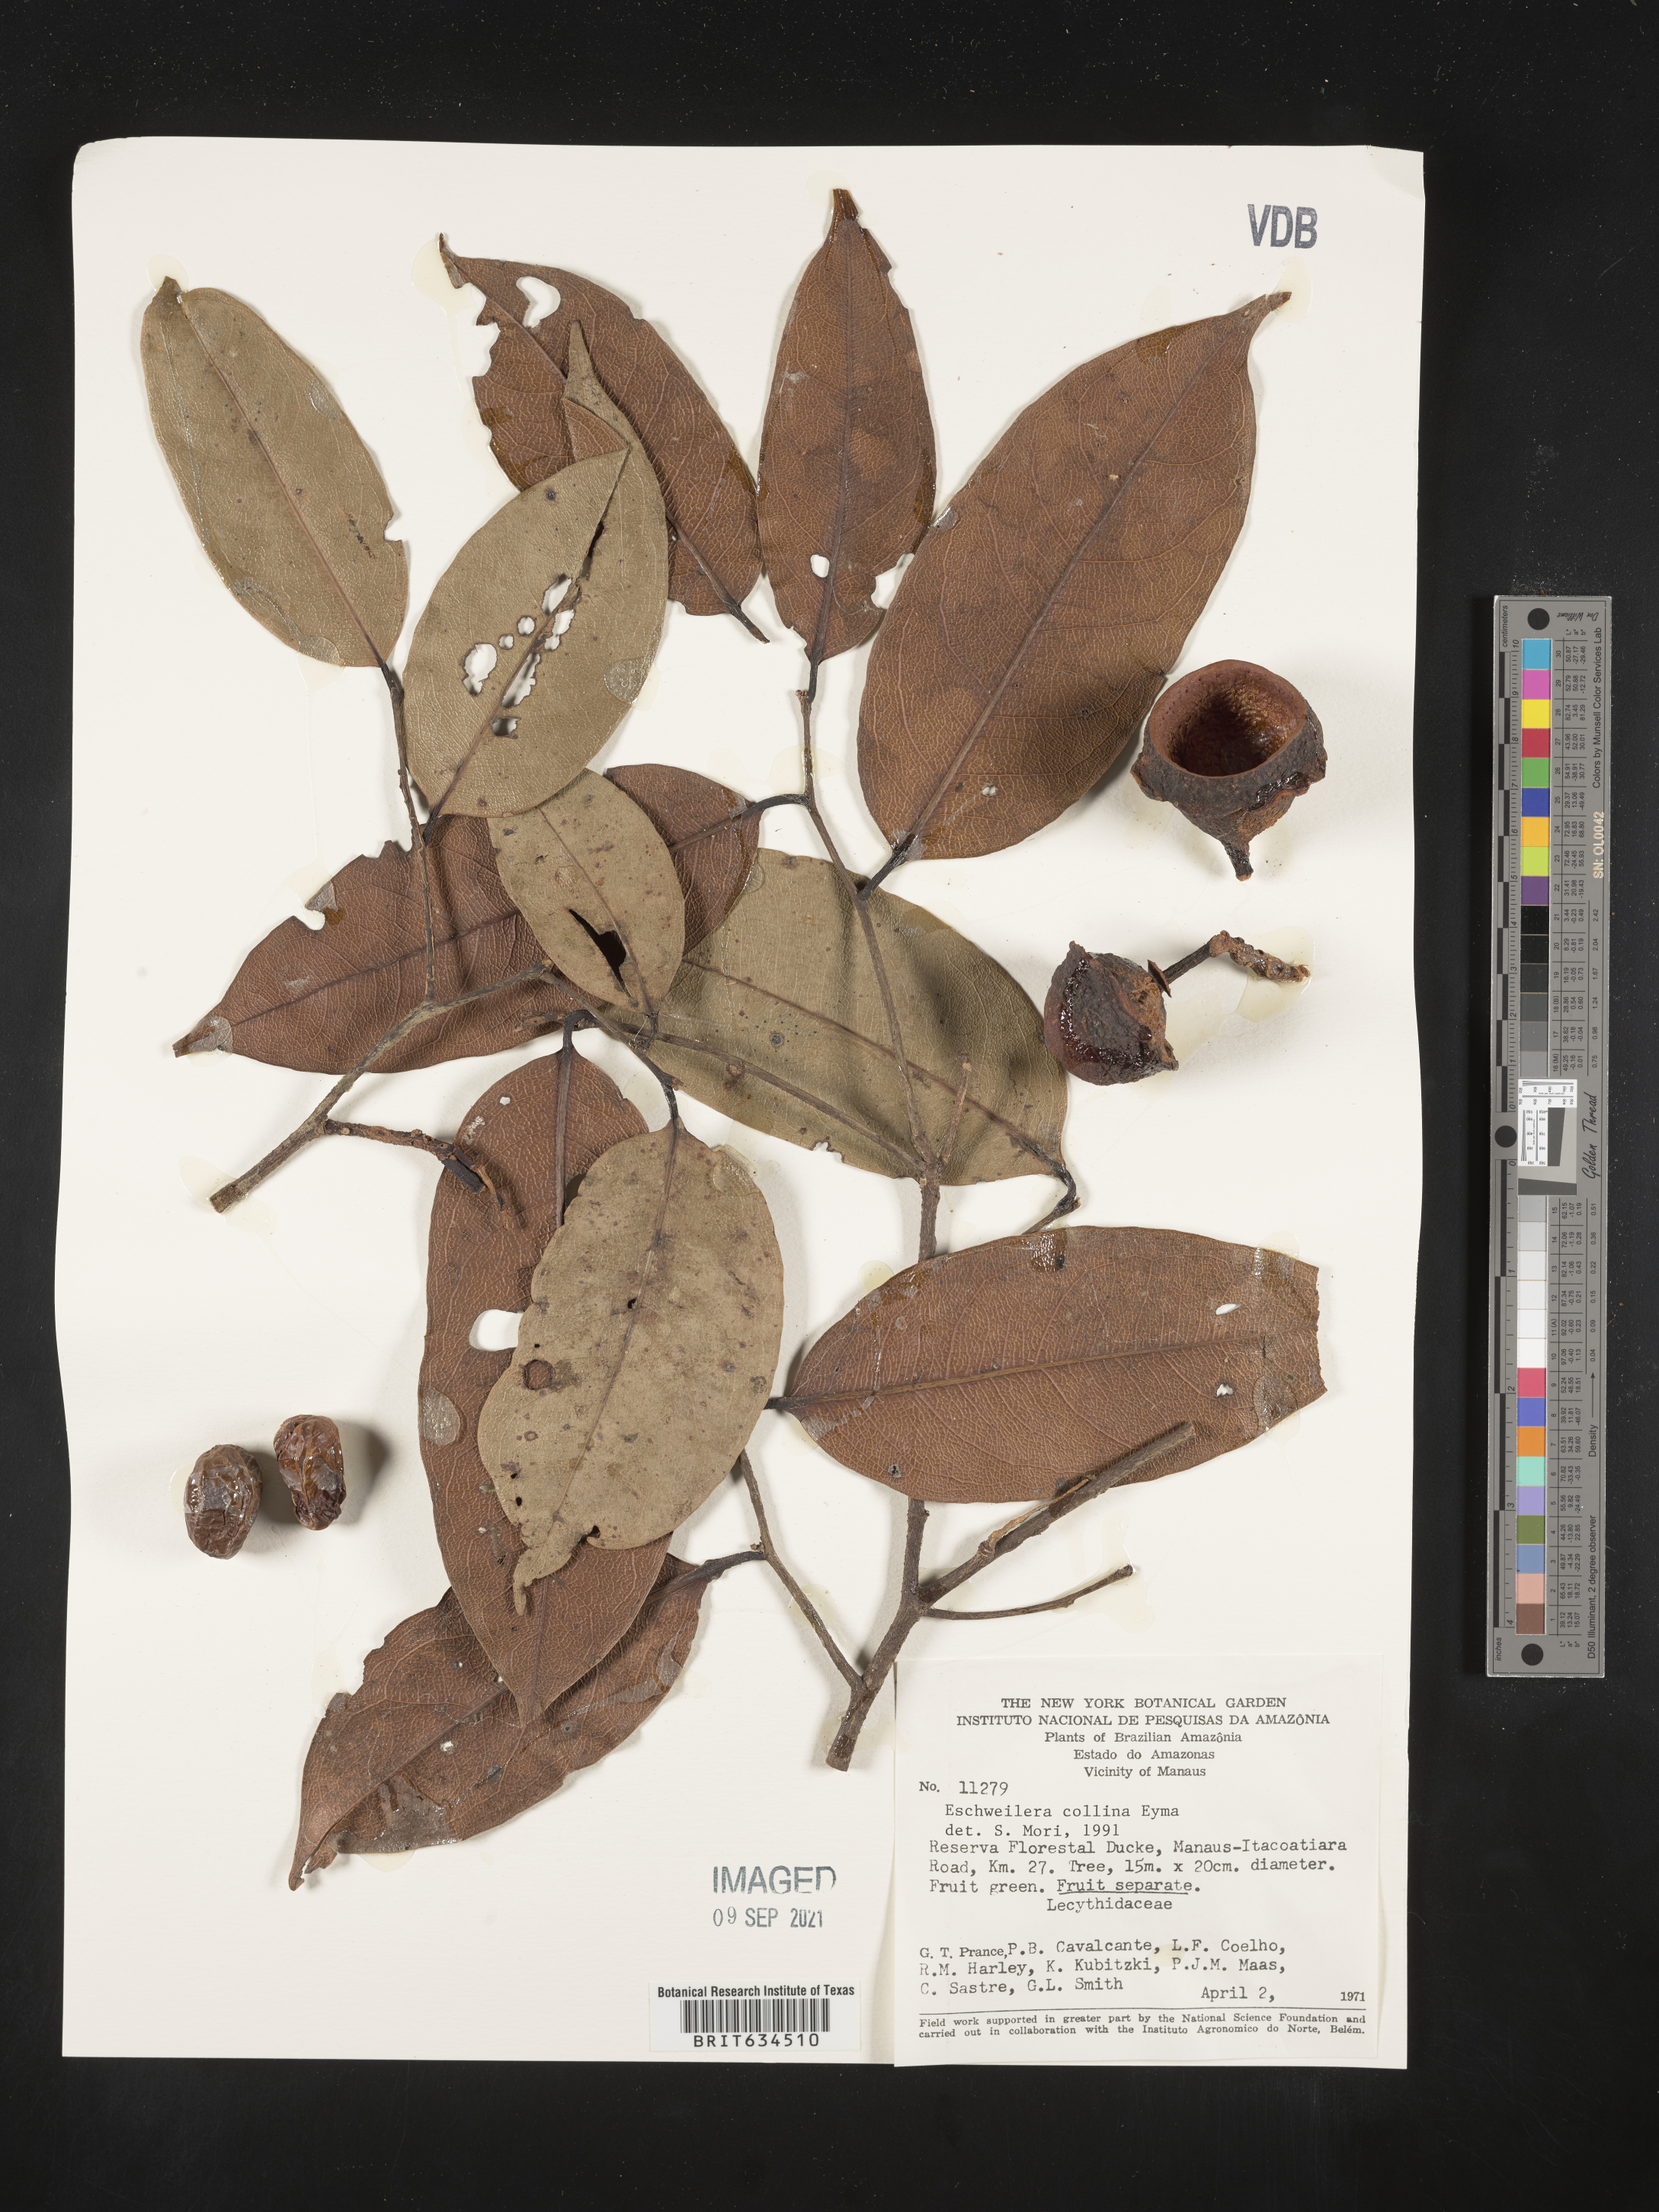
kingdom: Plantae
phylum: Tracheophyta
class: Magnoliopsida
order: Ericales
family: Lecythidaceae
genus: Eschweilera
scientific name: Eschweilera
